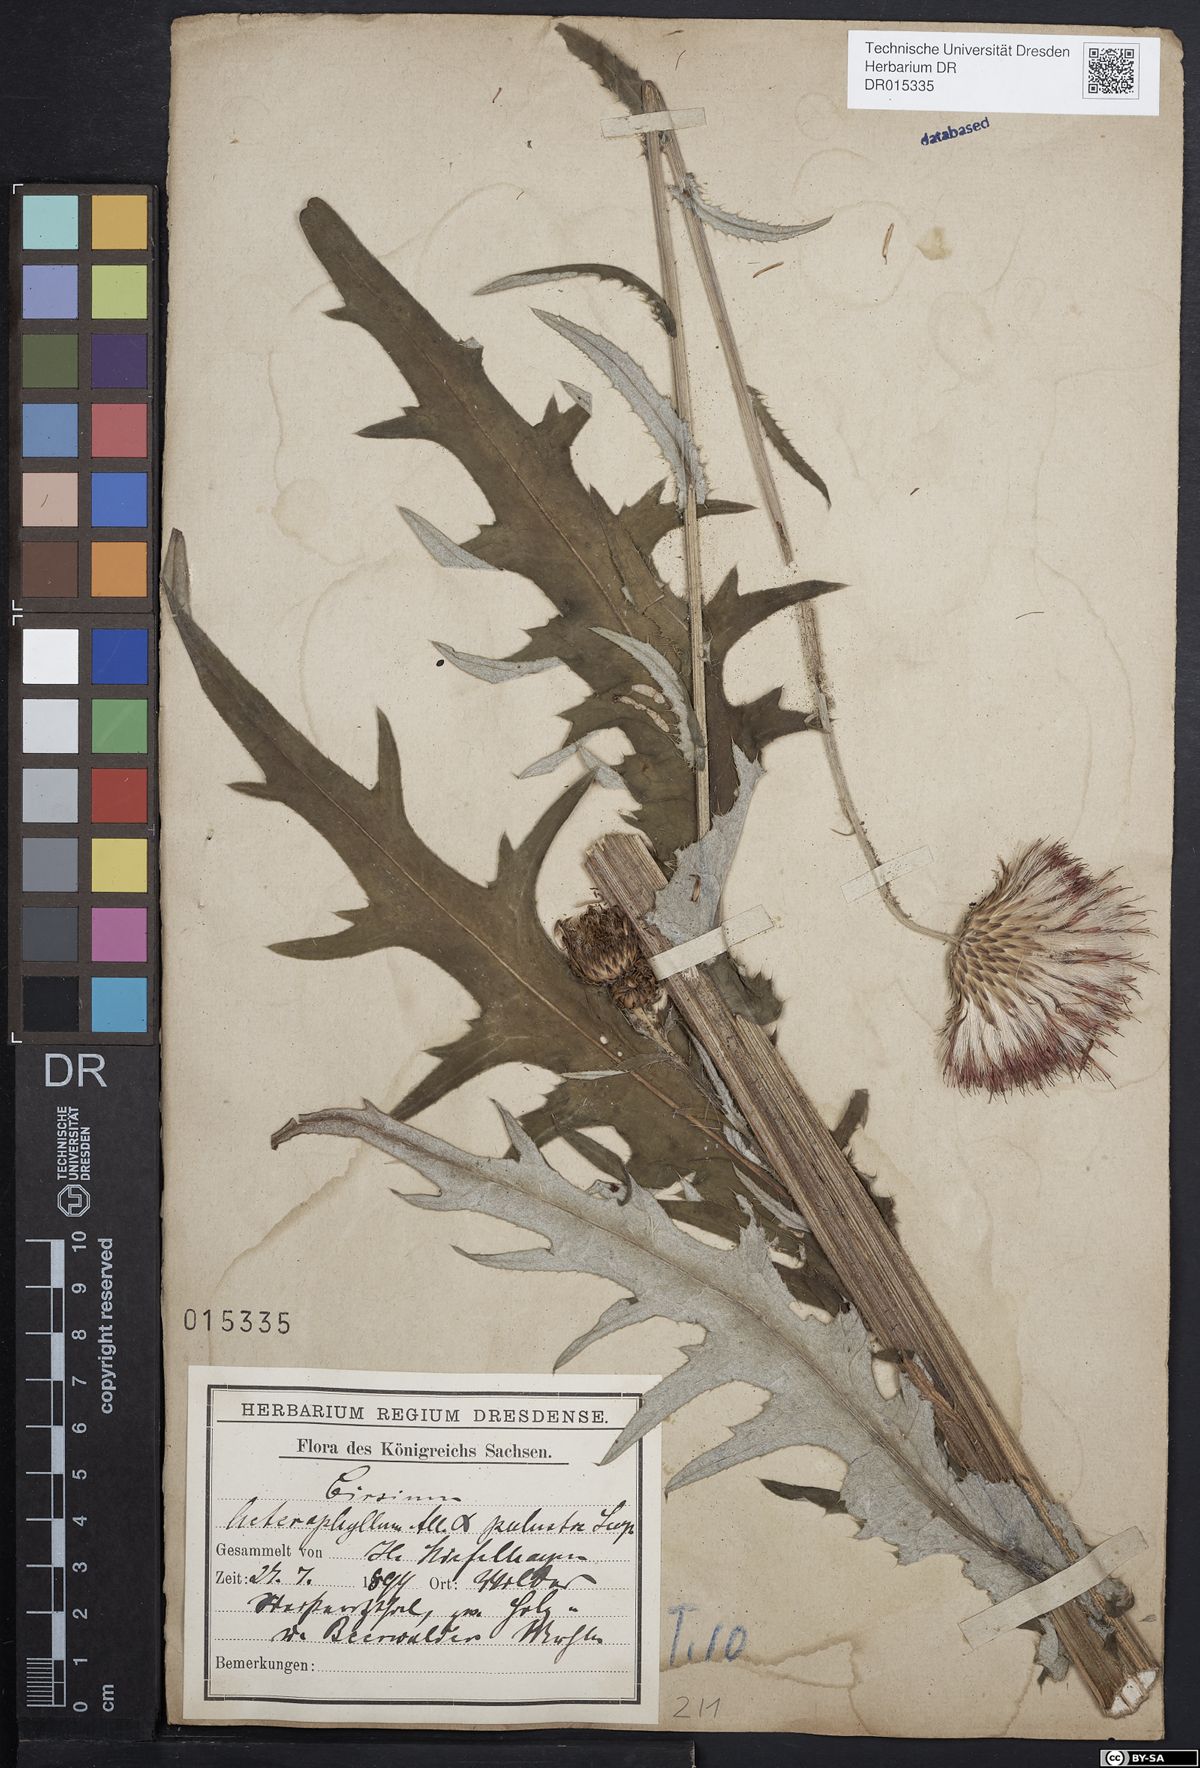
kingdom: Plantae
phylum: Tracheophyta
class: Magnoliopsida
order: Asterales
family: Asteraceae
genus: Cirsium
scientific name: Cirsium wankelii
